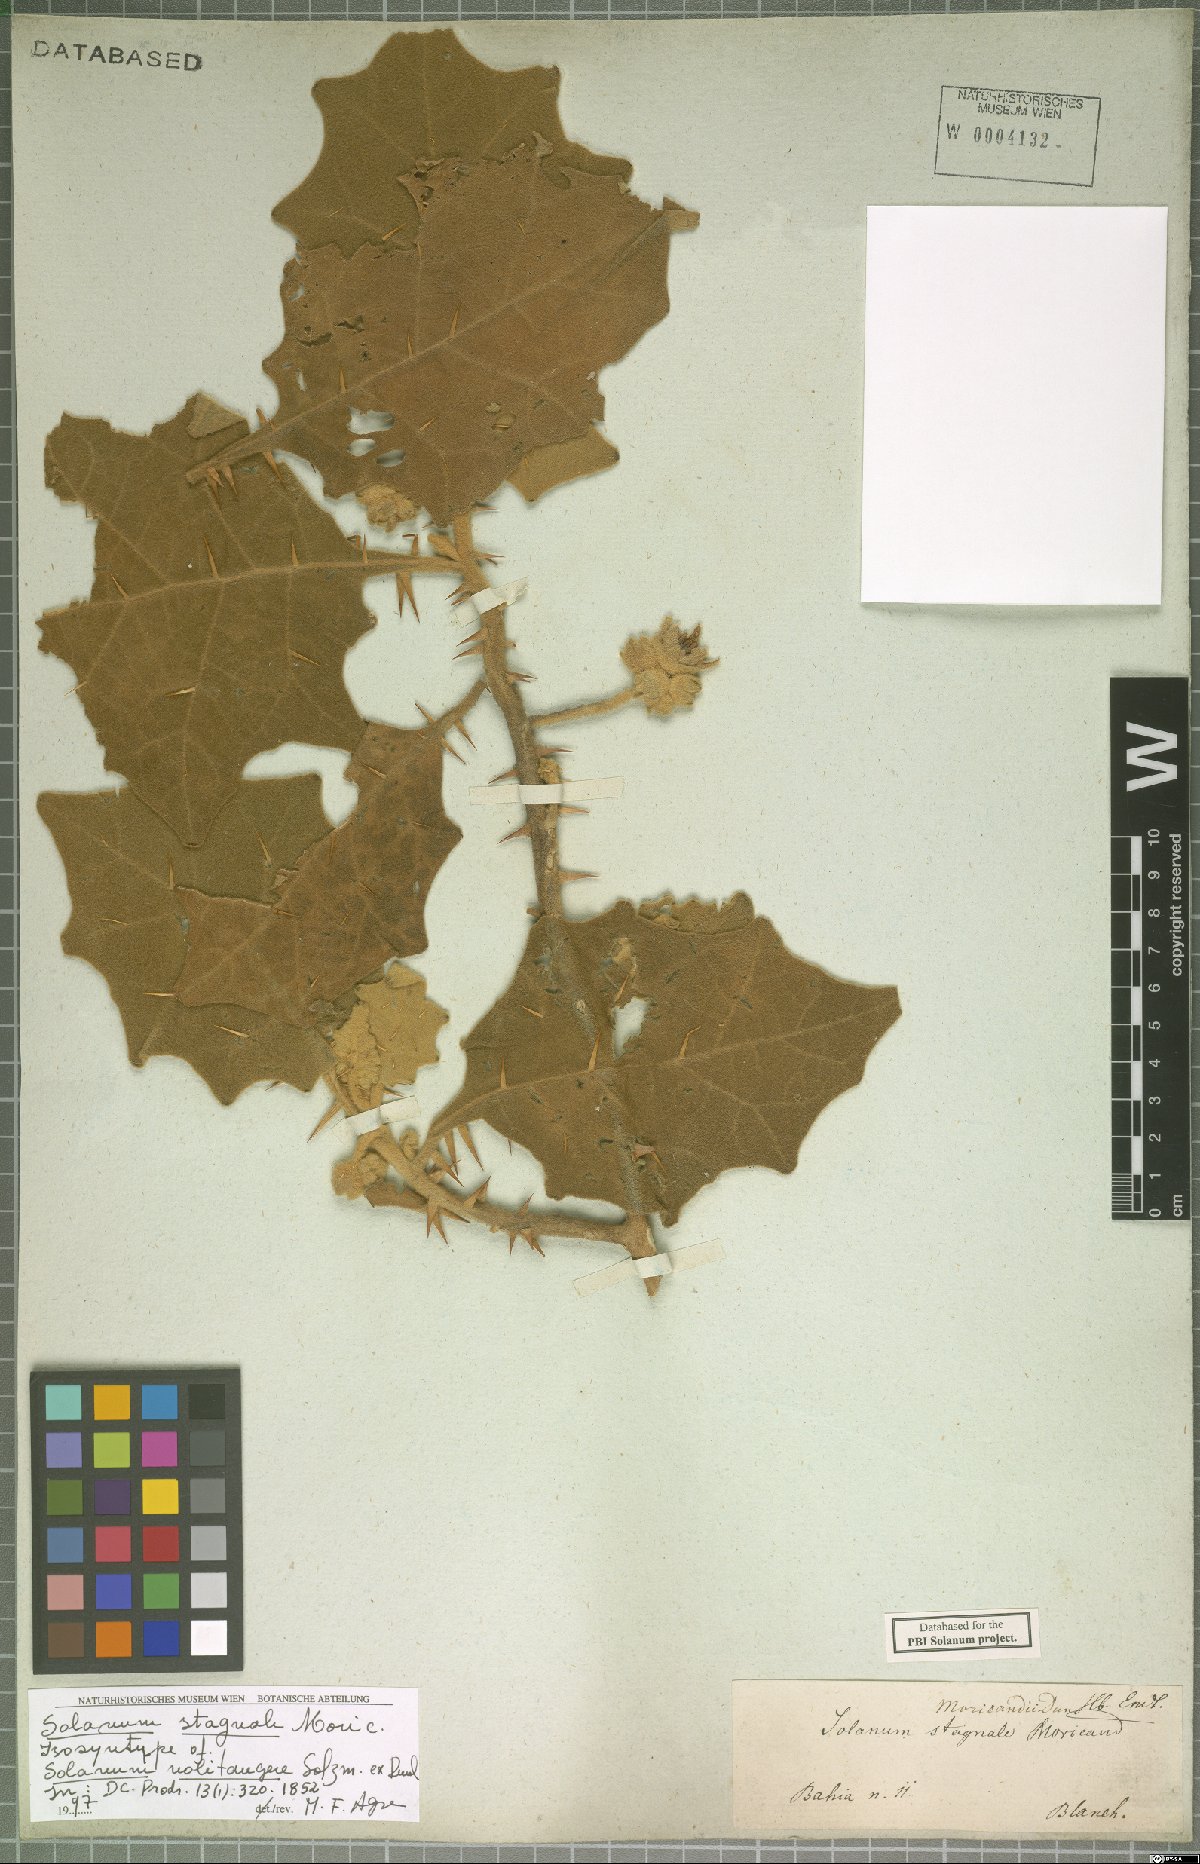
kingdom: Plantae
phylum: Tracheophyta
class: Magnoliopsida
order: Solanales
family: Solanaceae
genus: Solanum
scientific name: Solanum stagnale
